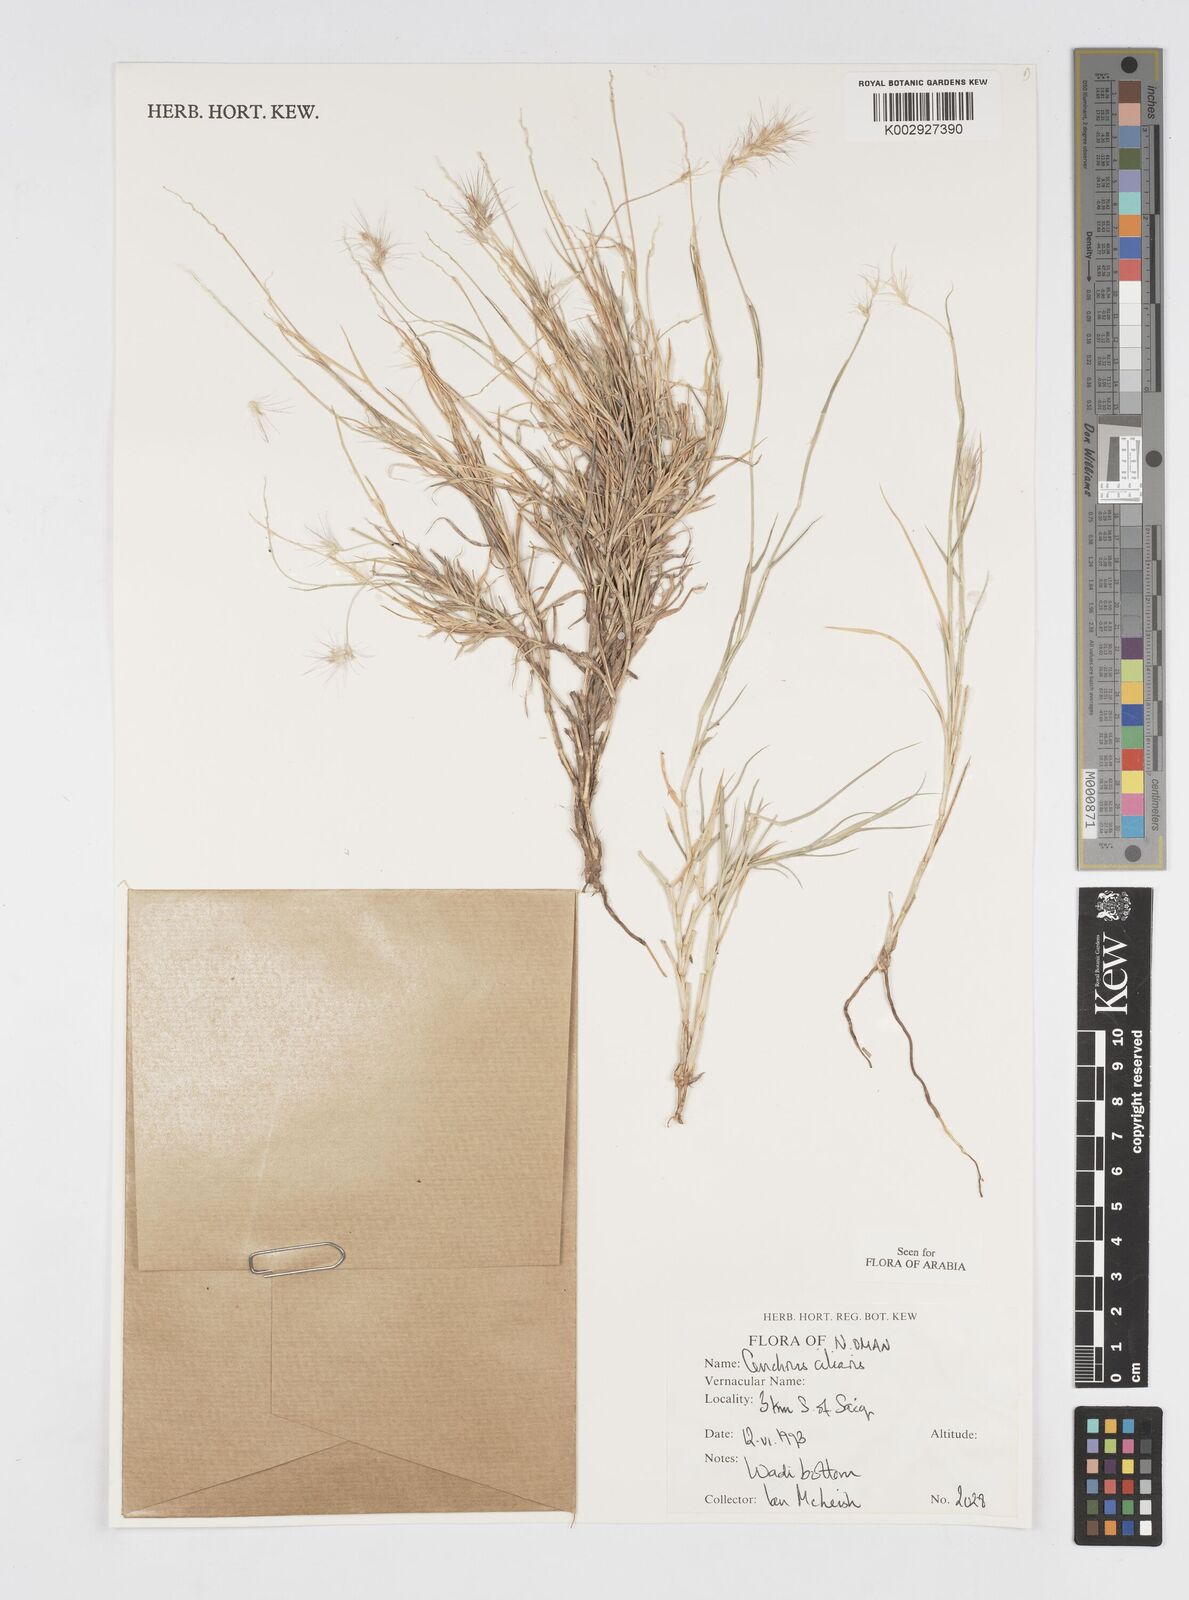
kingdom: Plantae
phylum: Tracheophyta
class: Liliopsida
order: Poales
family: Poaceae
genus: Cenchrus
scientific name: Cenchrus ciliaris
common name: Buffelgrass
